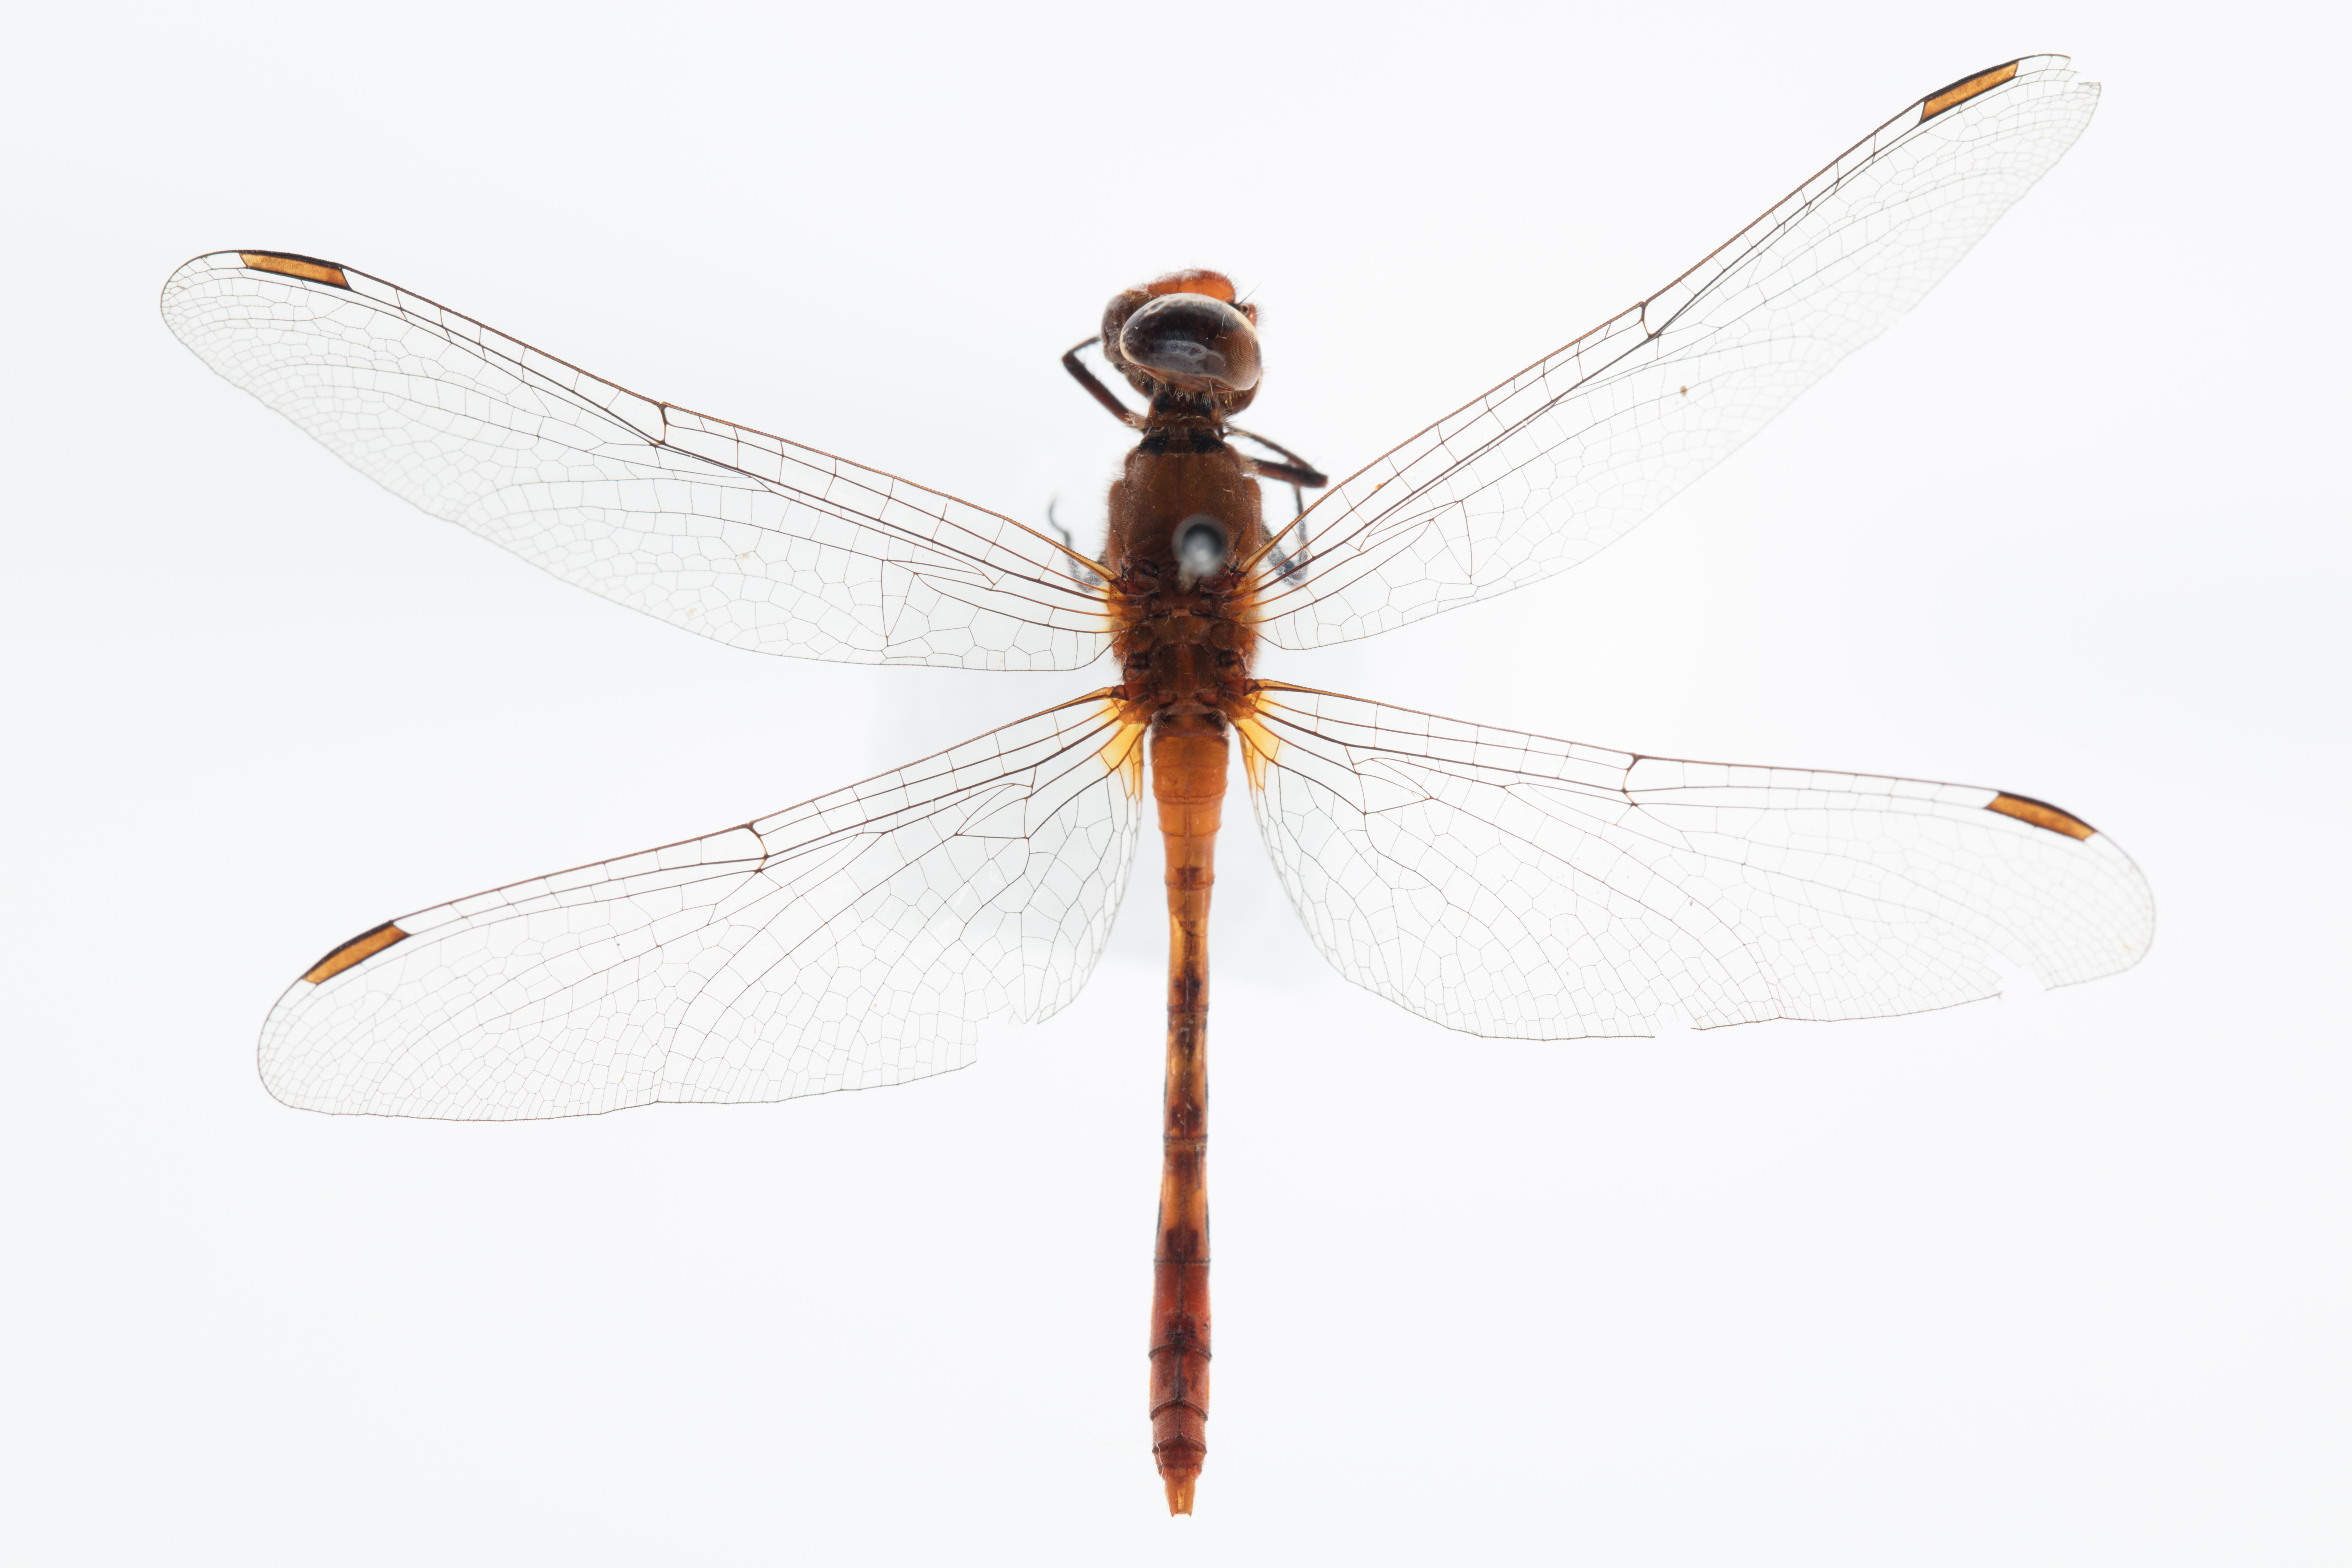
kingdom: Animalia
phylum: Arthropoda
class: Insecta
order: Odonata
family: Libellulidae
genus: Diplacodes
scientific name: Diplacodes bipunctata
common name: Red percher dragonfly
